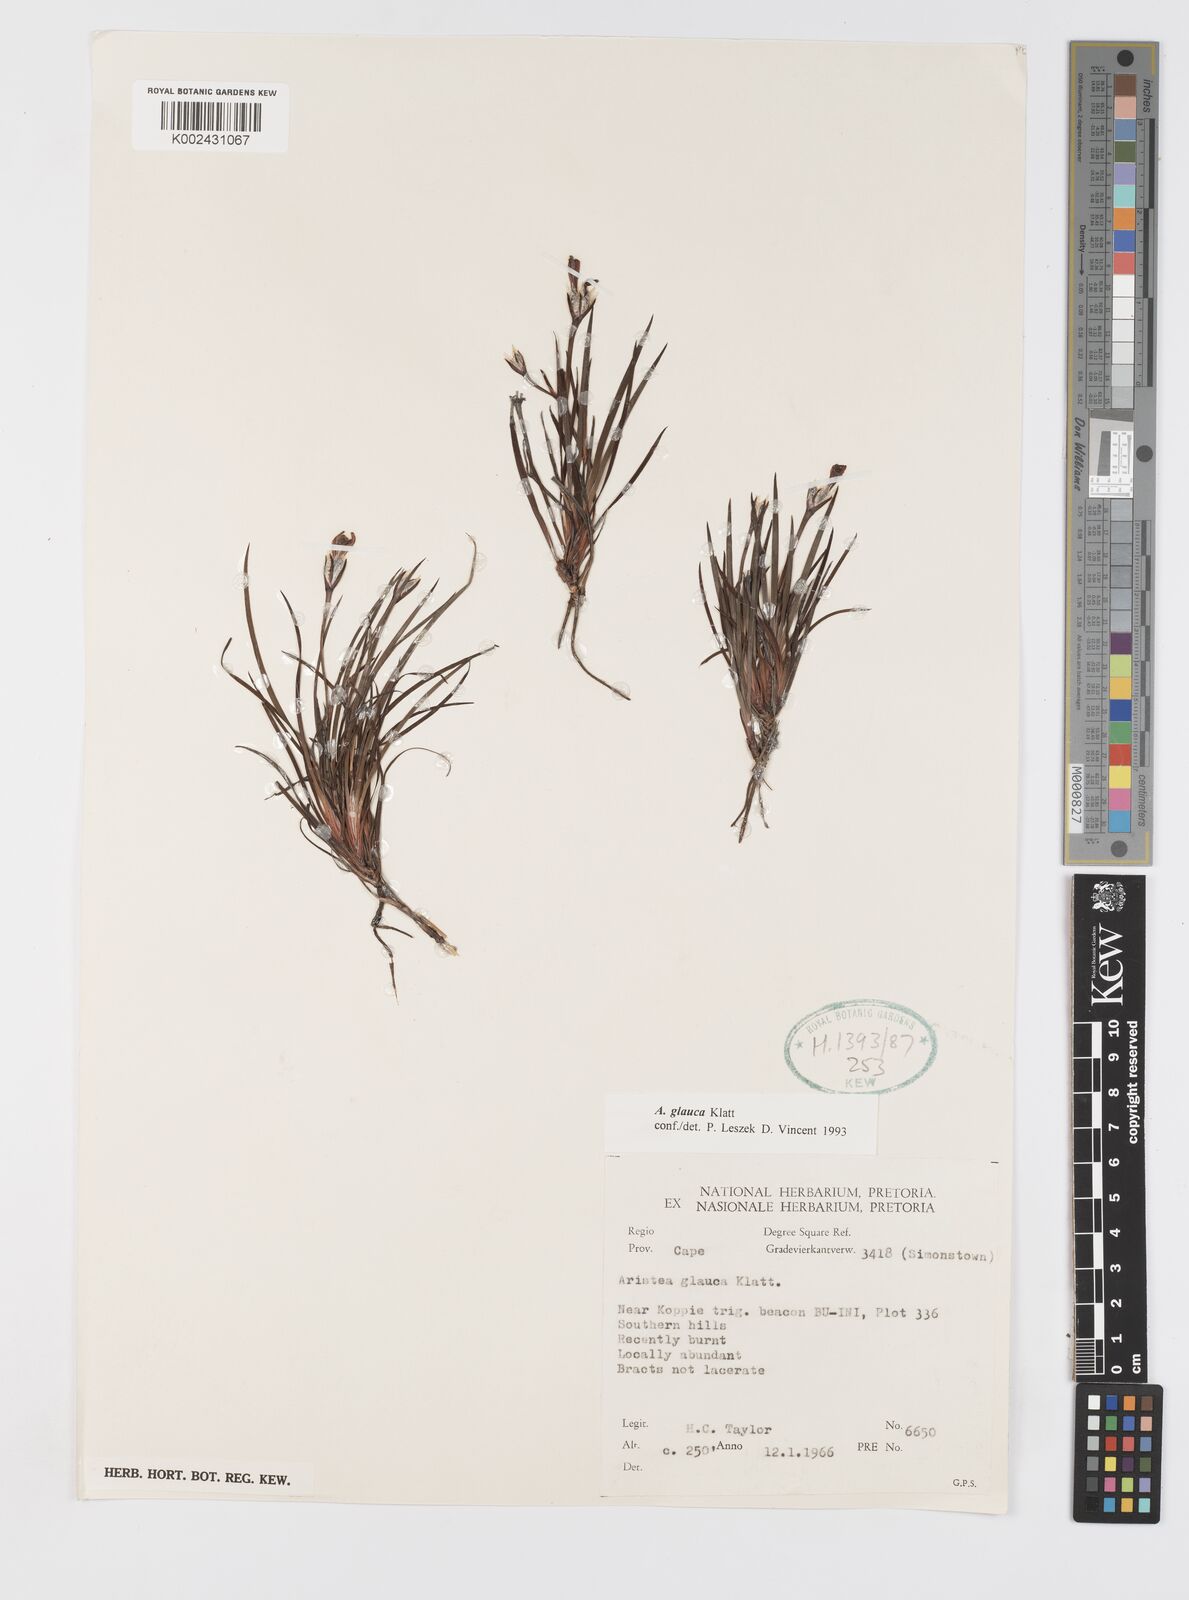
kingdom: Plantae
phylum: Tracheophyta
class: Liliopsida
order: Asparagales
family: Iridaceae
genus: Aristea
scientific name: Aristea glauca
